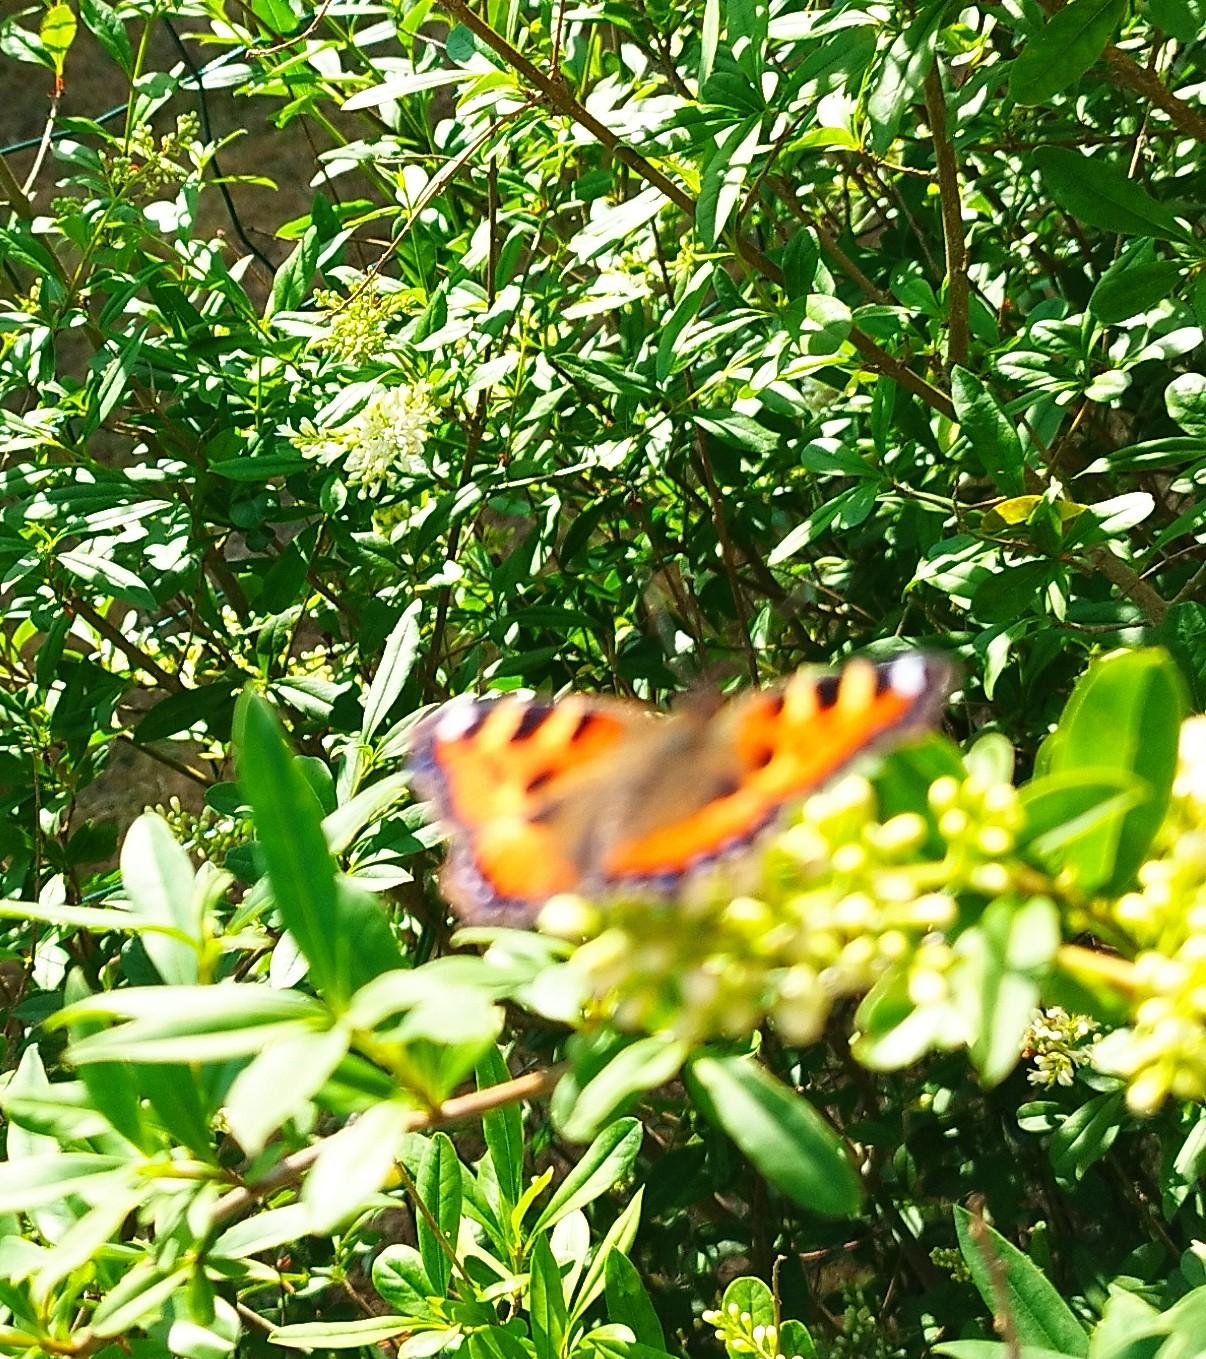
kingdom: Animalia
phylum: Arthropoda
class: Insecta
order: Lepidoptera
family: Nymphalidae
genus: Aglais
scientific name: Aglais urticae
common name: Nældens takvinge
